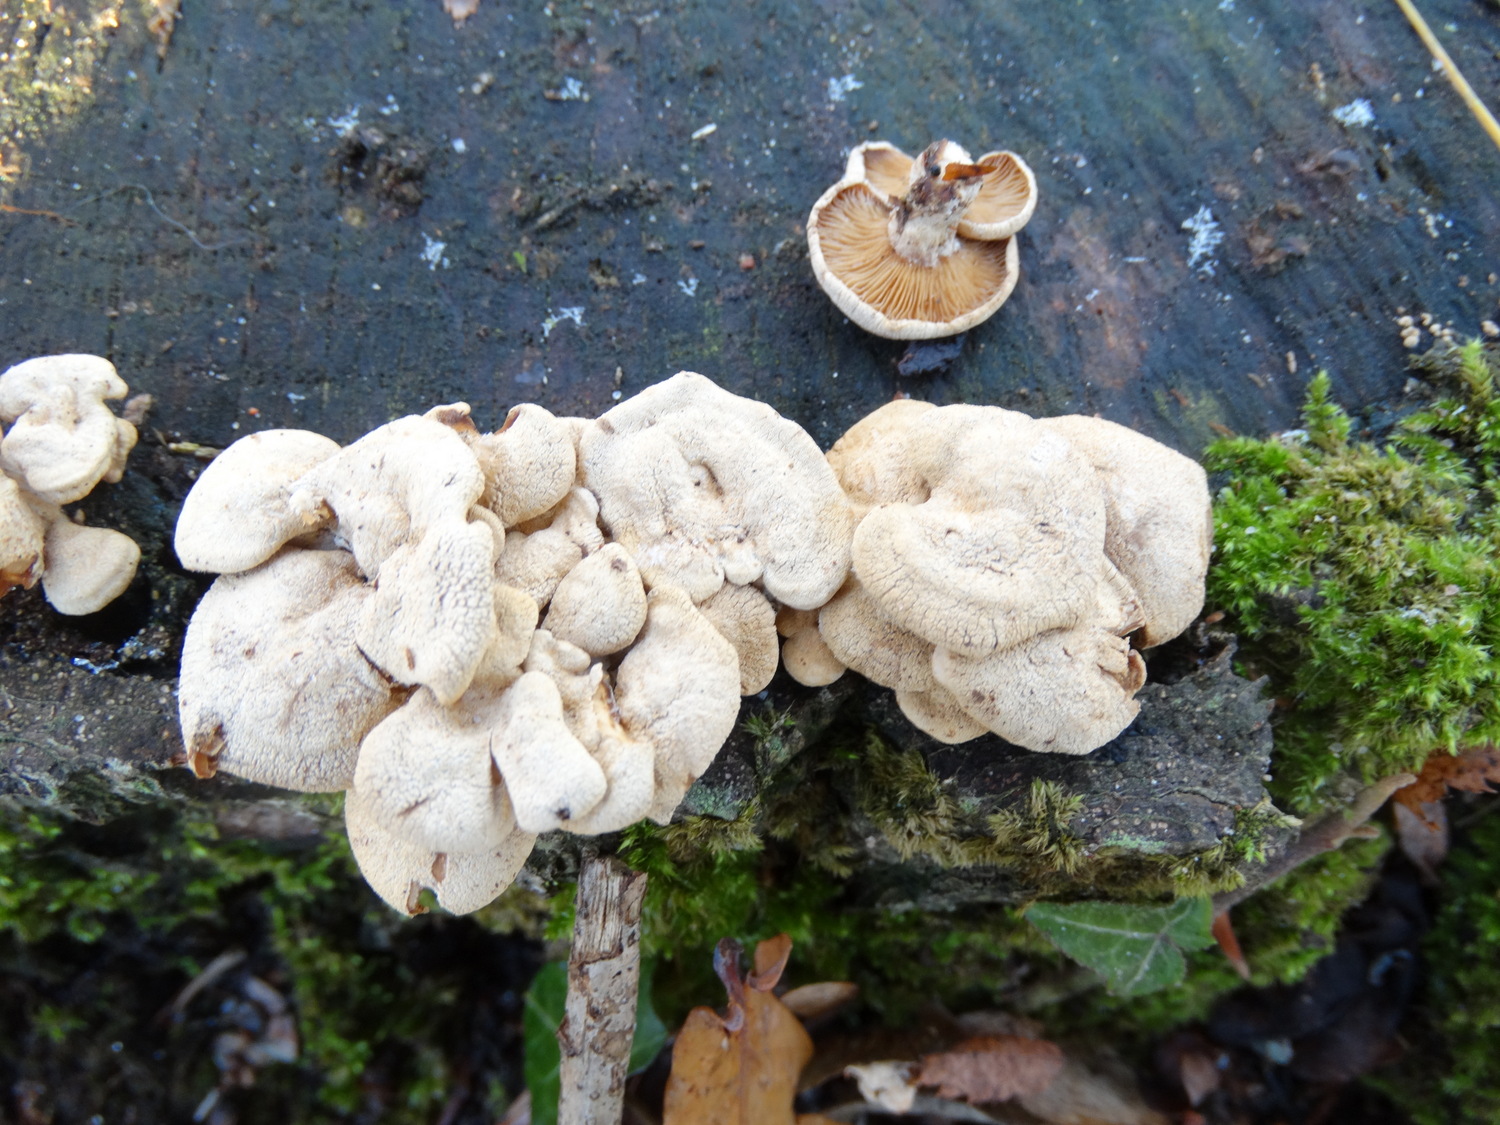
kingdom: Fungi
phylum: Basidiomycota
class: Agaricomycetes
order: Agaricales
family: Mycenaceae
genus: Panellus
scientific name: Panellus stipticus
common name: kliddet epaulethat
